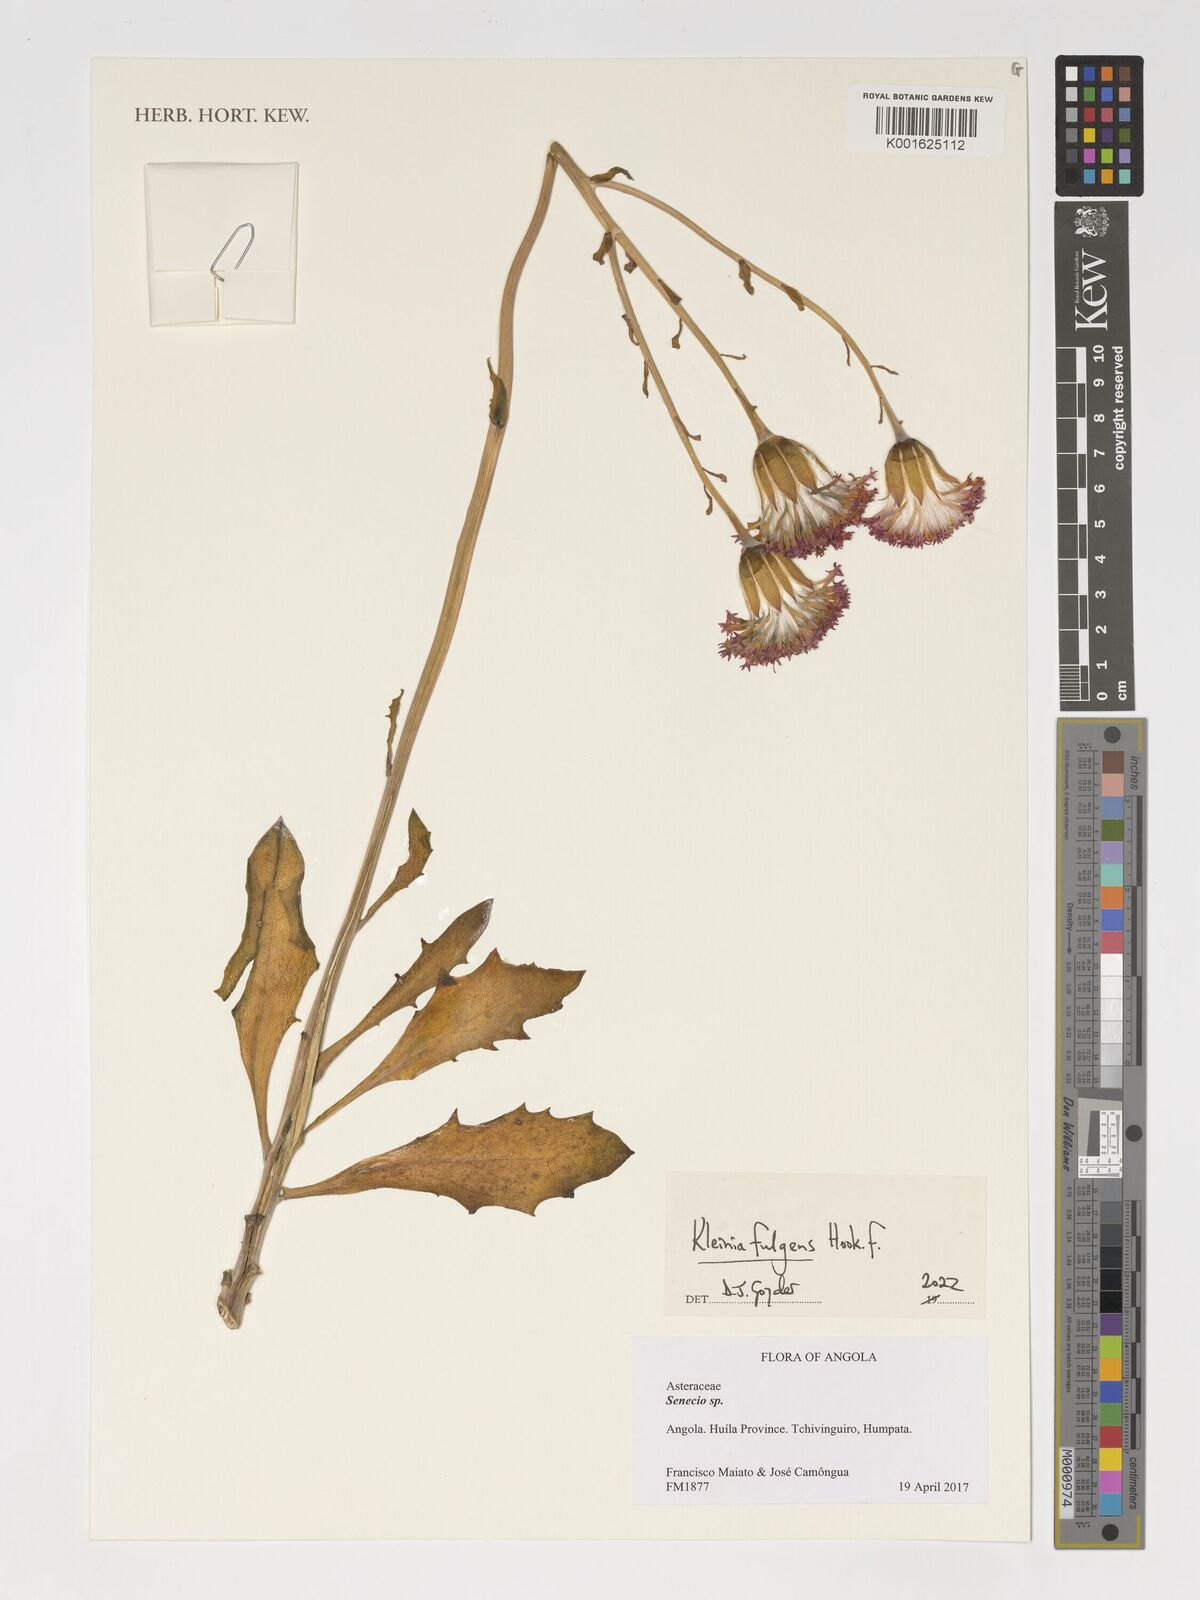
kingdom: Plantae
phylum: Tracheophyta
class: Magnoliopsida
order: Asterales
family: Asteraceae
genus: Kleinia
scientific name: Kleinia fulgens
